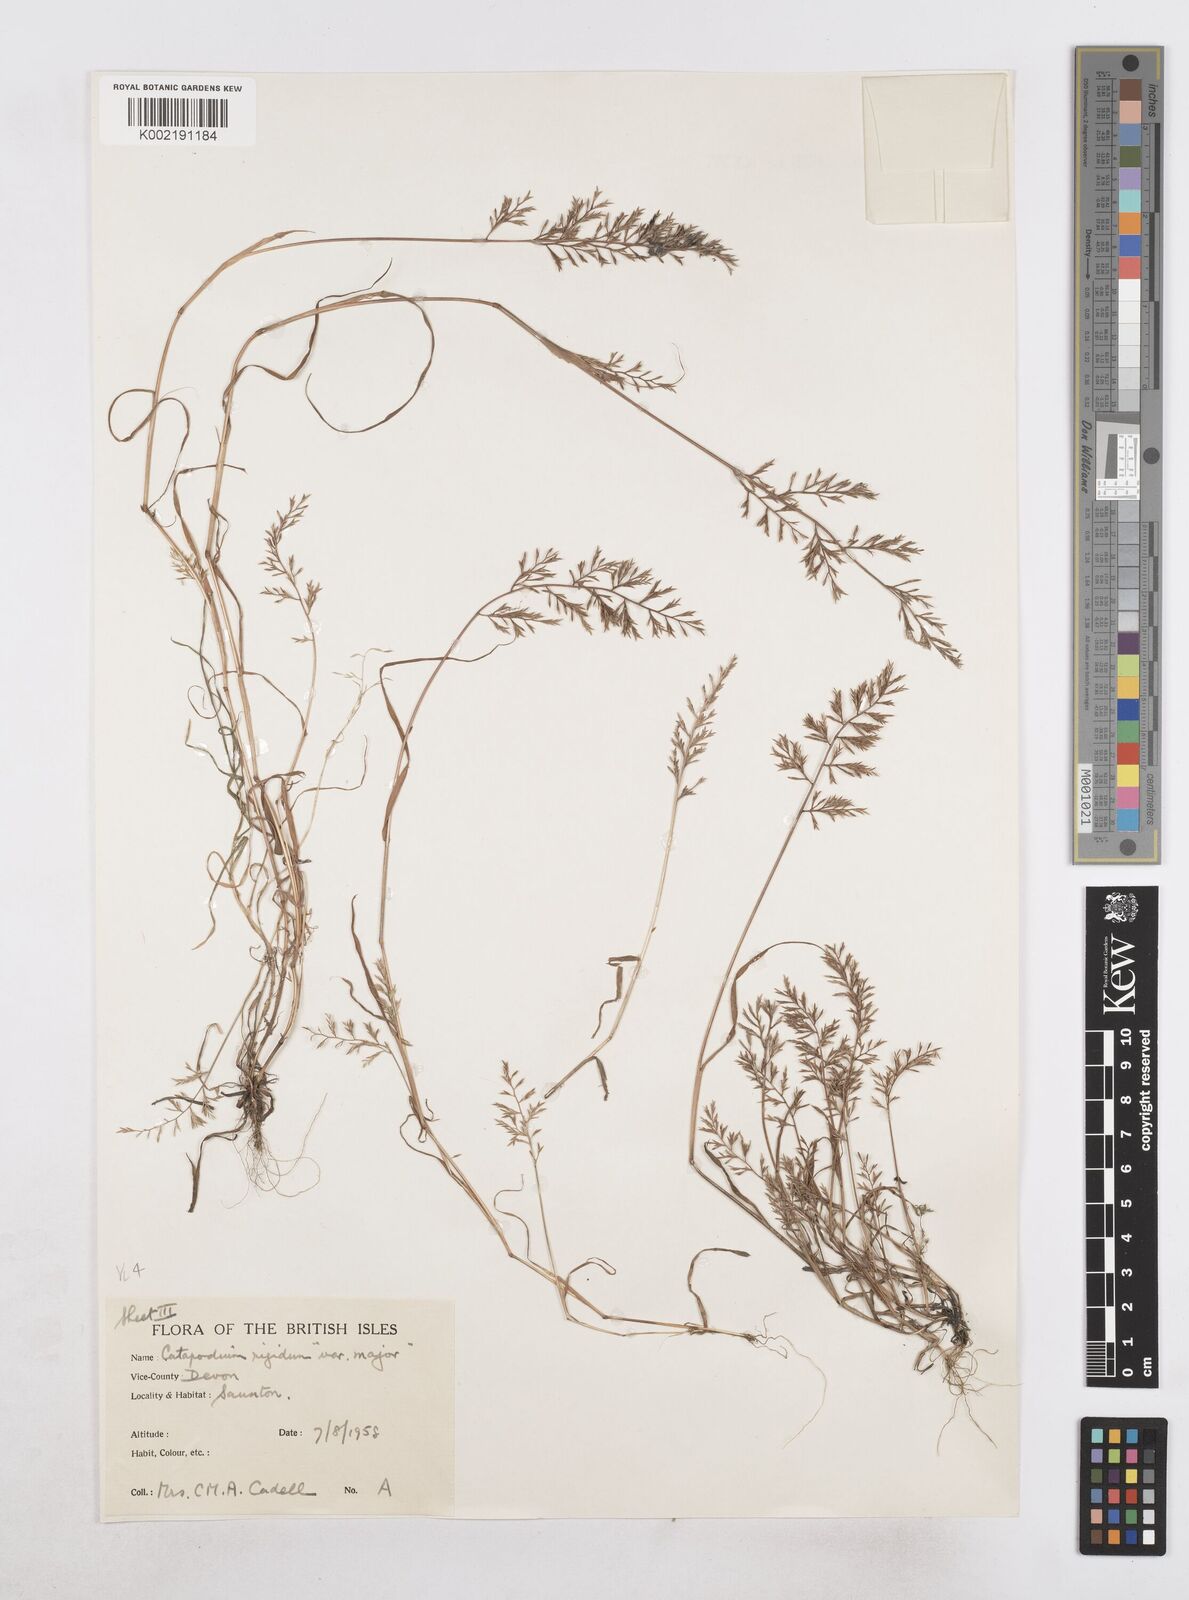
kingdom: Plantae
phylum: Tracheophyta
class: Liliopsida
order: Poales
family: Poaceae
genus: Catapodium
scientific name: Catapodium rigidum
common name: Fern-grass
